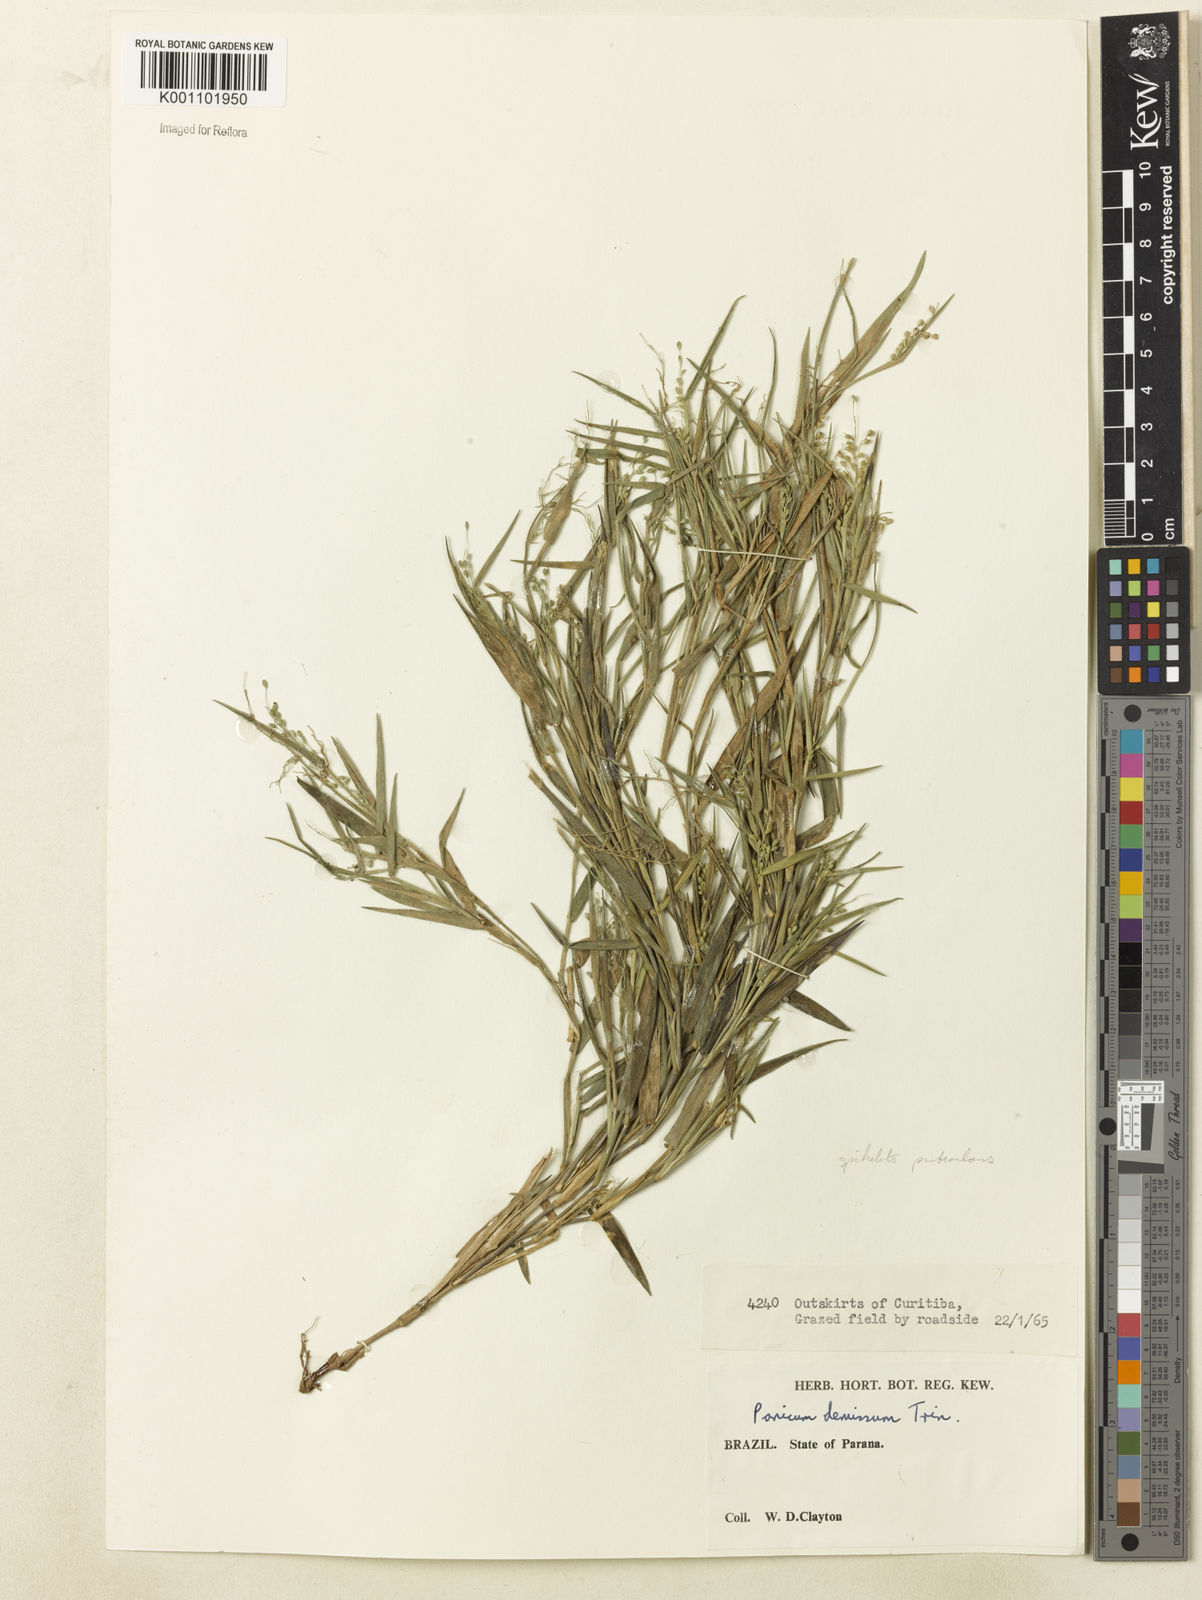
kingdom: Plantae
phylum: Tracheophyta
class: Liliopsida
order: Poales
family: Poaceae
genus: Dichanthelium
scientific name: Dichanthelium sabulorum
